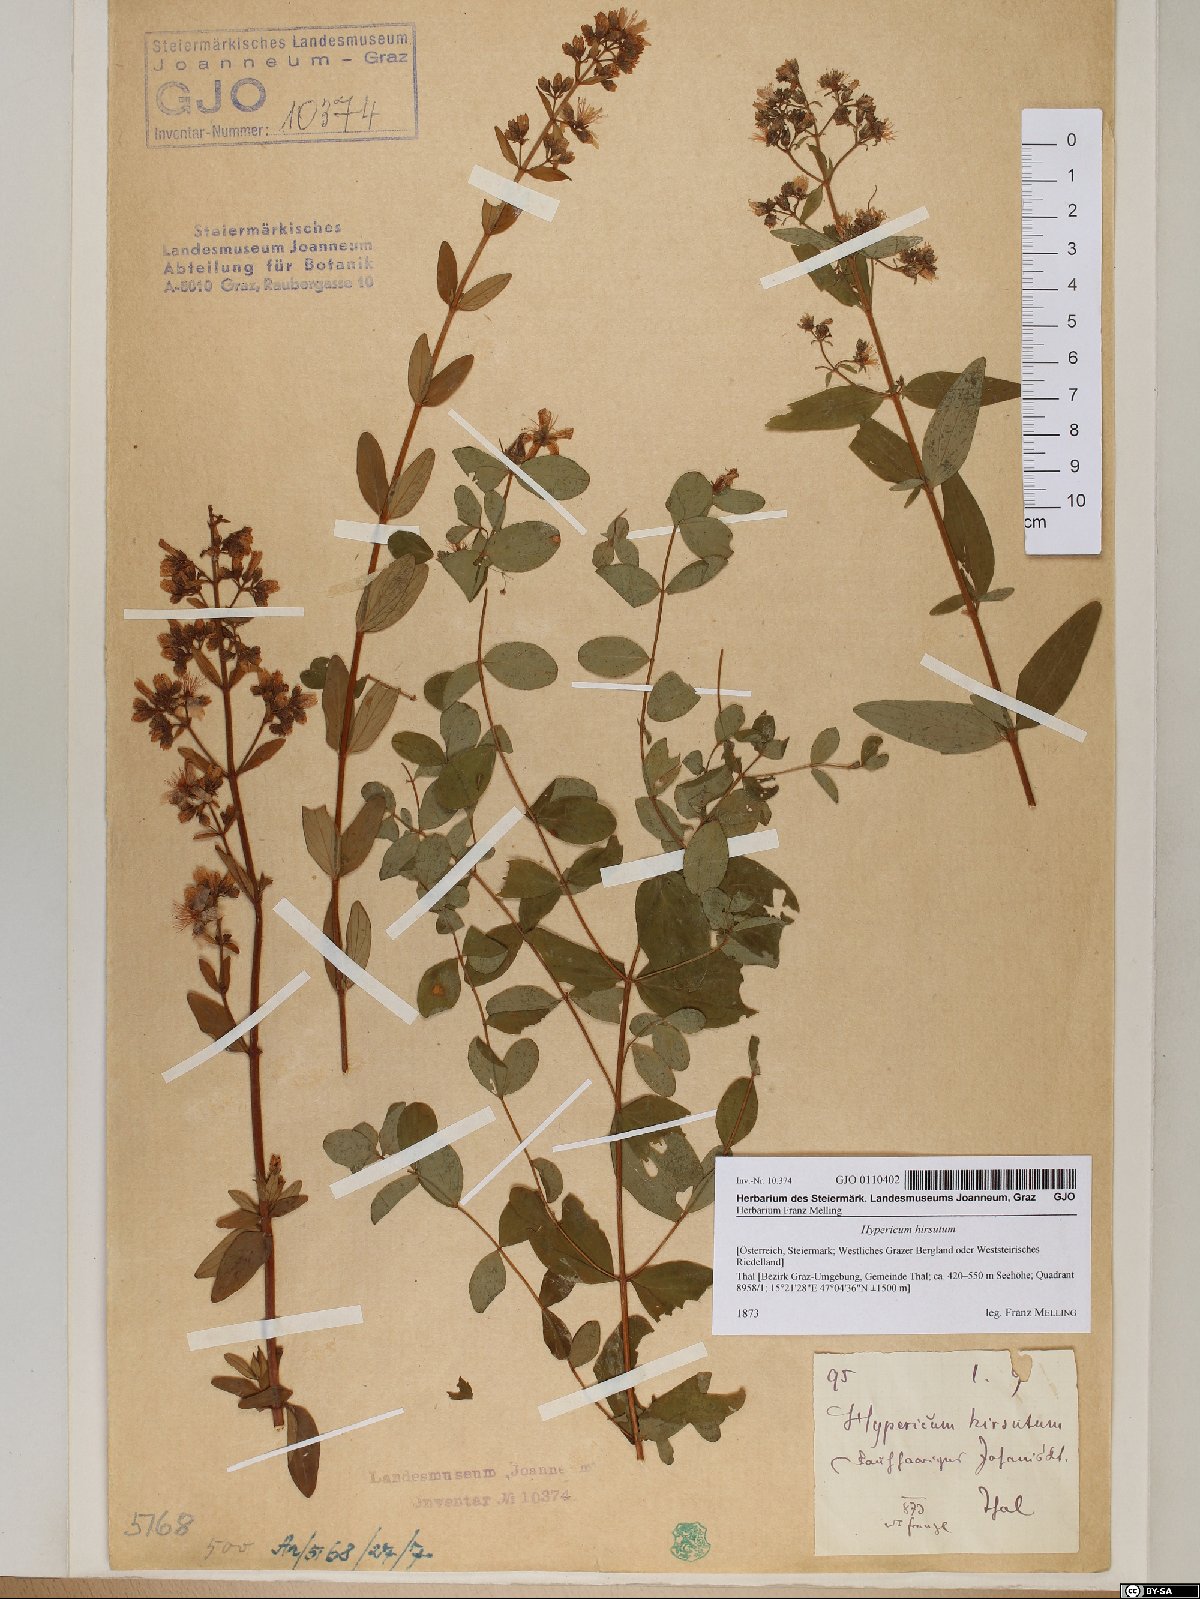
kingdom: Plantae
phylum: Tracheophyta
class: Magnoliopsida
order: Malpighiales
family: Hypericaceae
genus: Hypericum
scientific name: Hypericum hirsutum
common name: Hairy st. john's-wort
